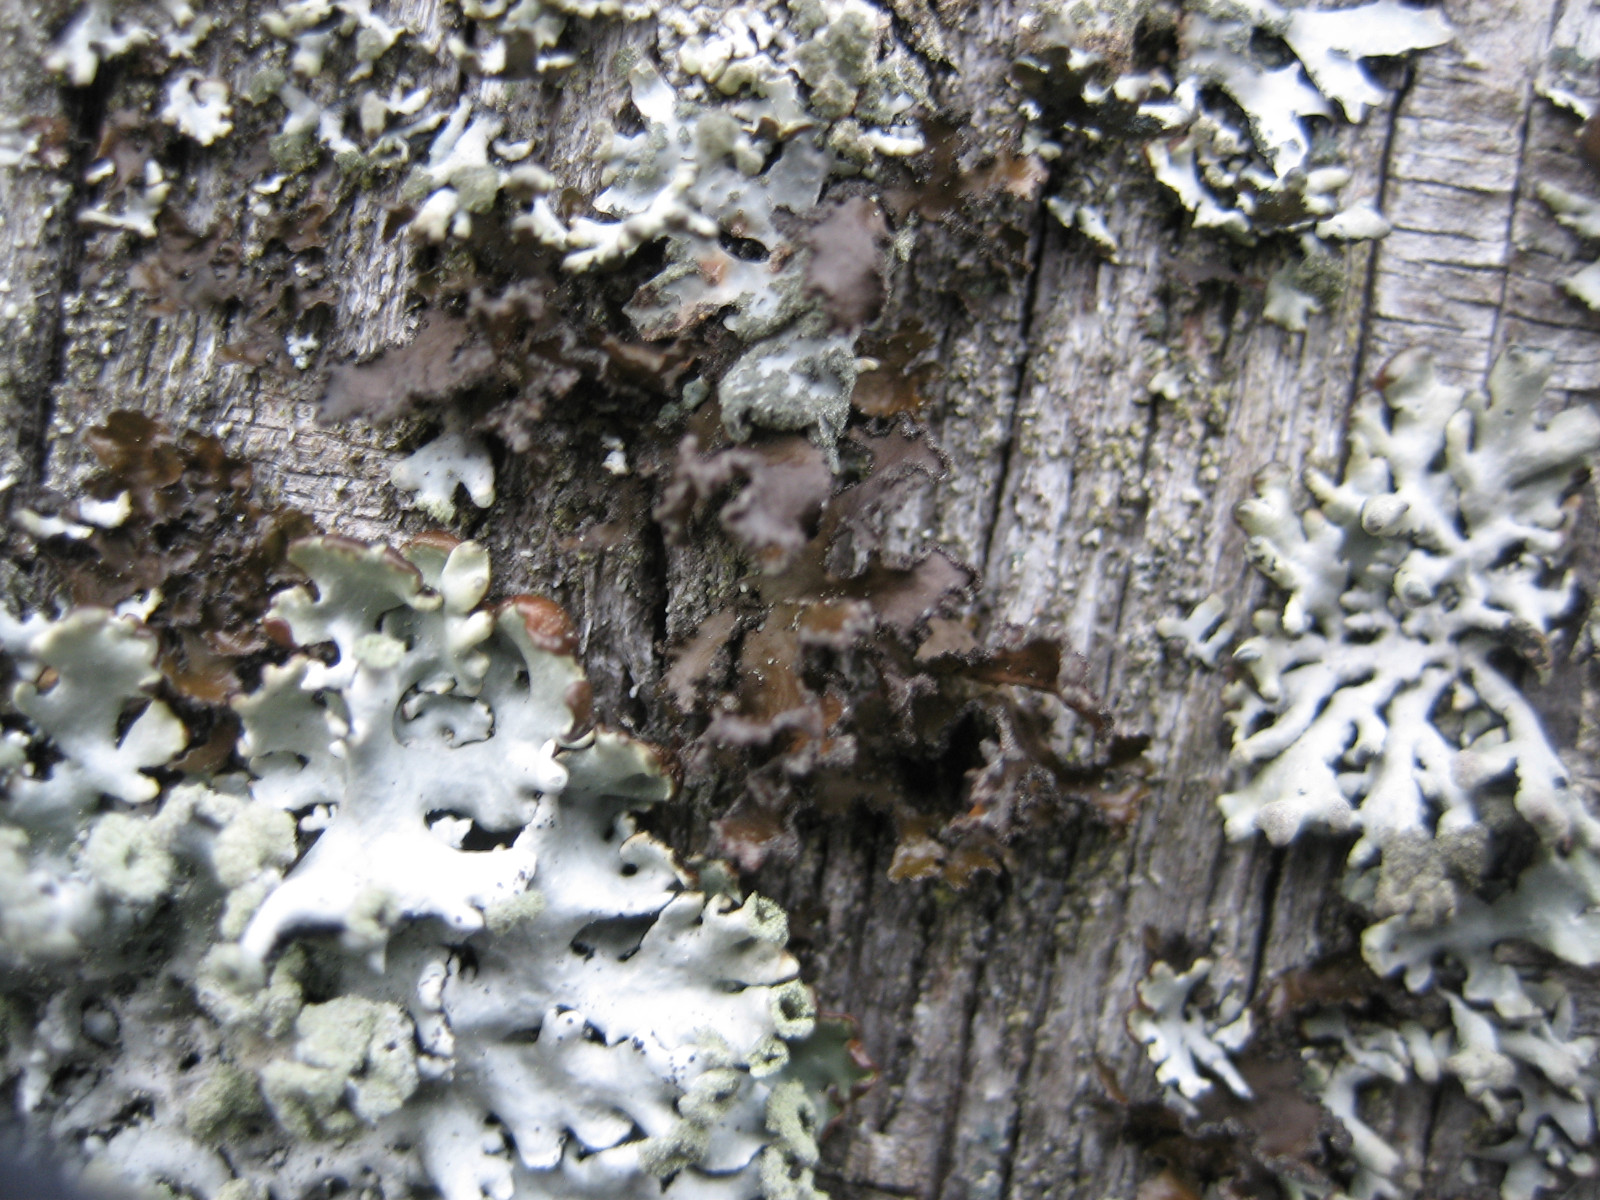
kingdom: Fungi
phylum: Ascomycota
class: Lecanoromycetes
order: Lecanorales
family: Parmeliaceae
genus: Nephromopsis
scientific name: Nephromopsis chlorophylla
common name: olivenbrun kruslav
